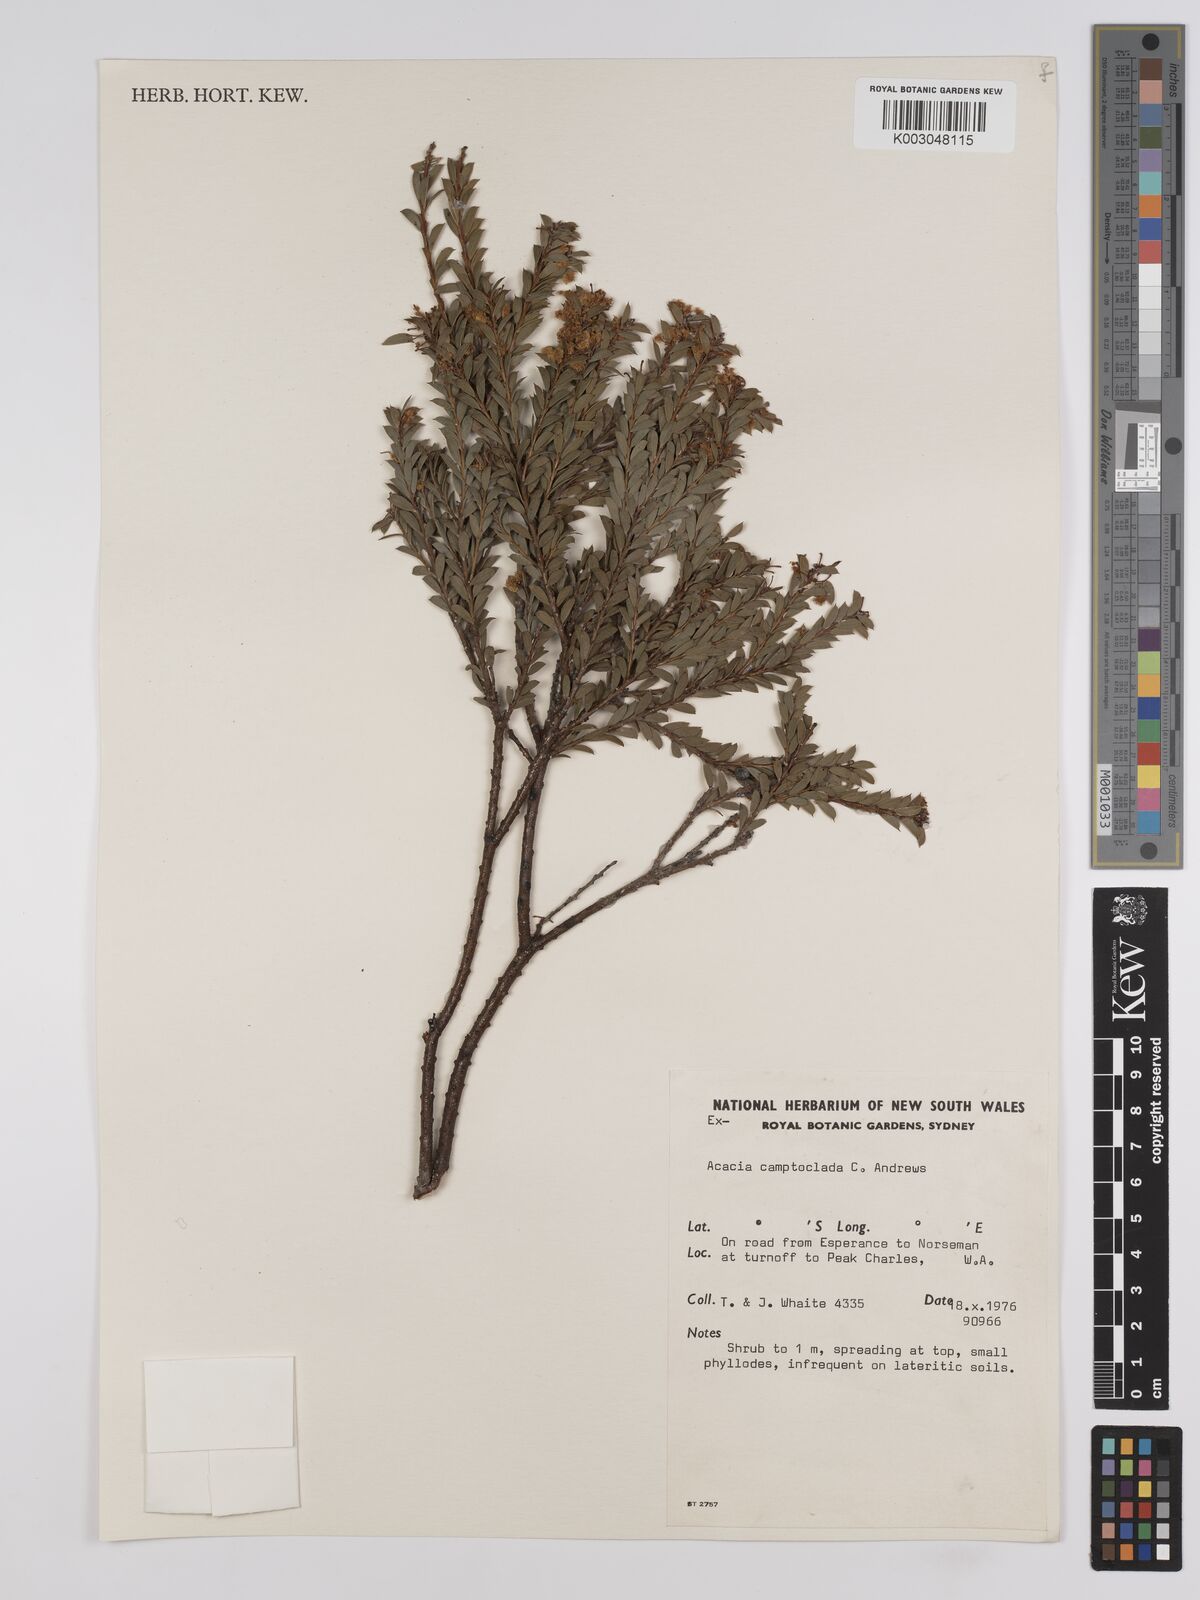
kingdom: Plantae
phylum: Tracheophyta
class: Magnoliopsida
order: Fabales
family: Fabaceae
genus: Acacia
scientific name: Acacia camptoclada
